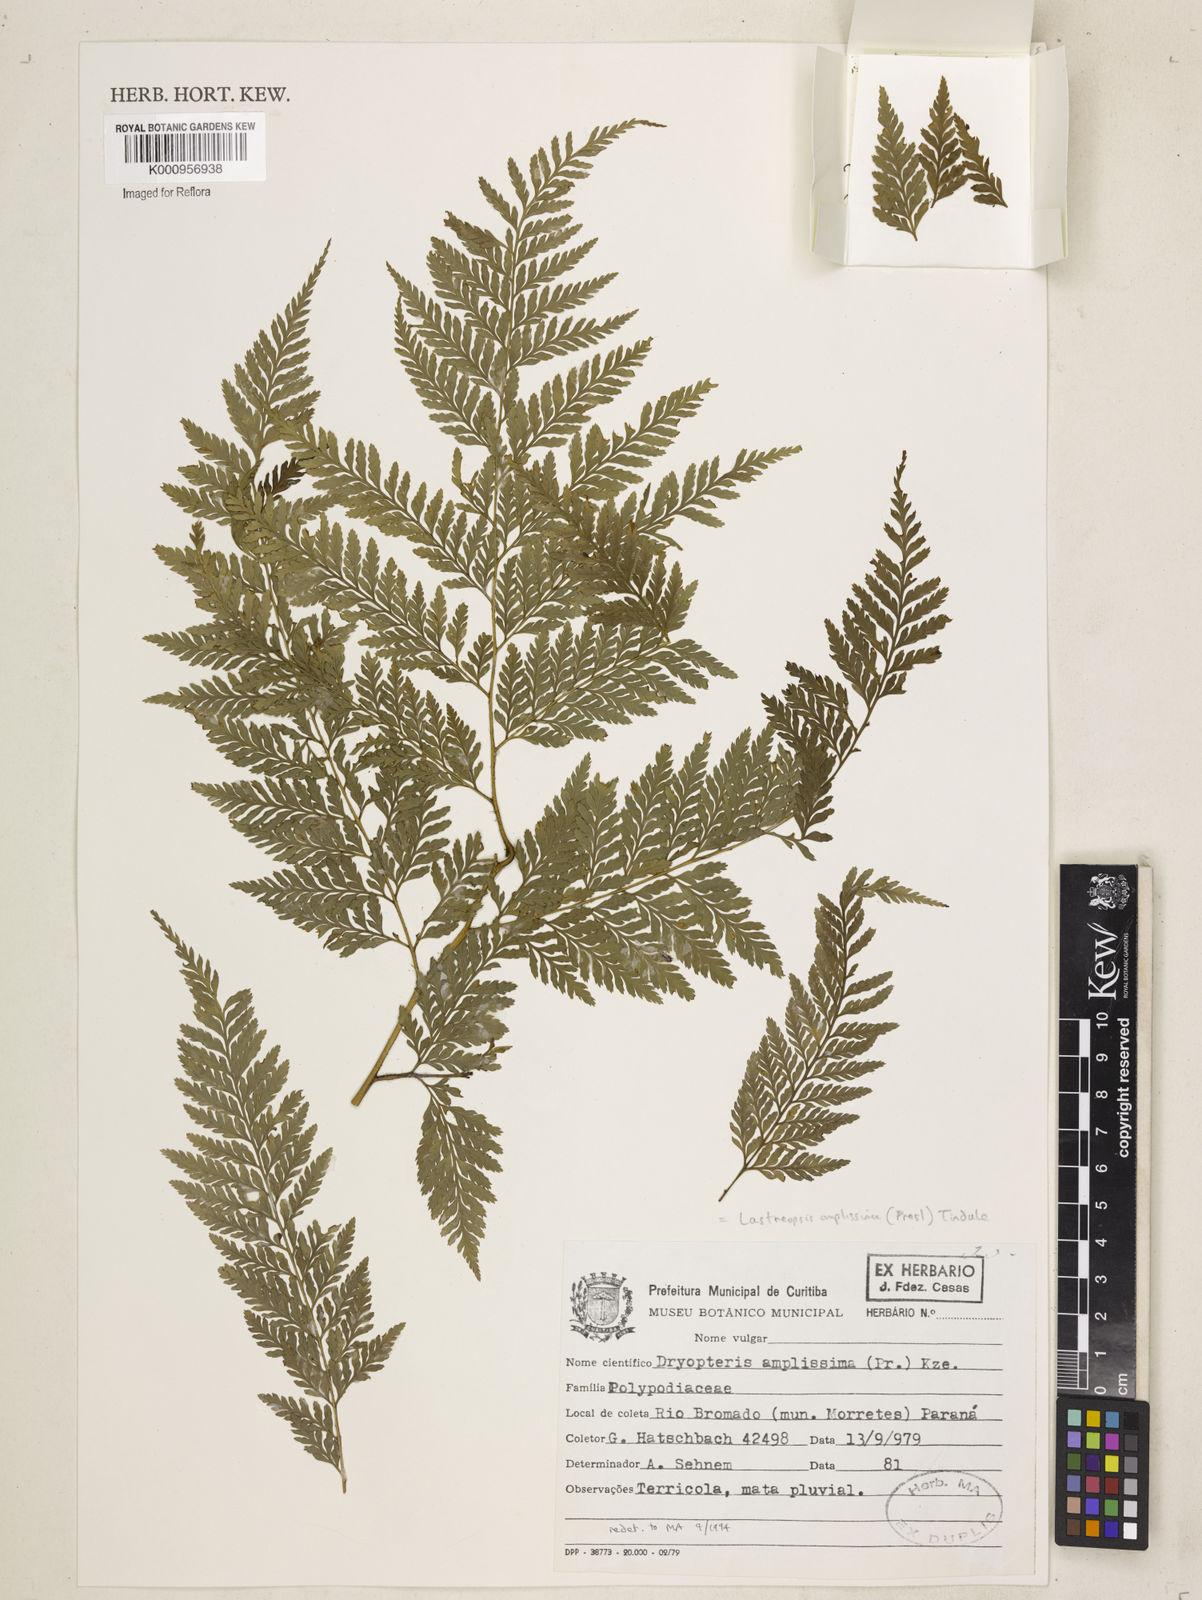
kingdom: Plantae
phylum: Tracheophyta
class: Polypodiopsida
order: Polypodiales
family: Dryopteridaceae
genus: Lastreopsis
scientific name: Lastreopsis amplissima
